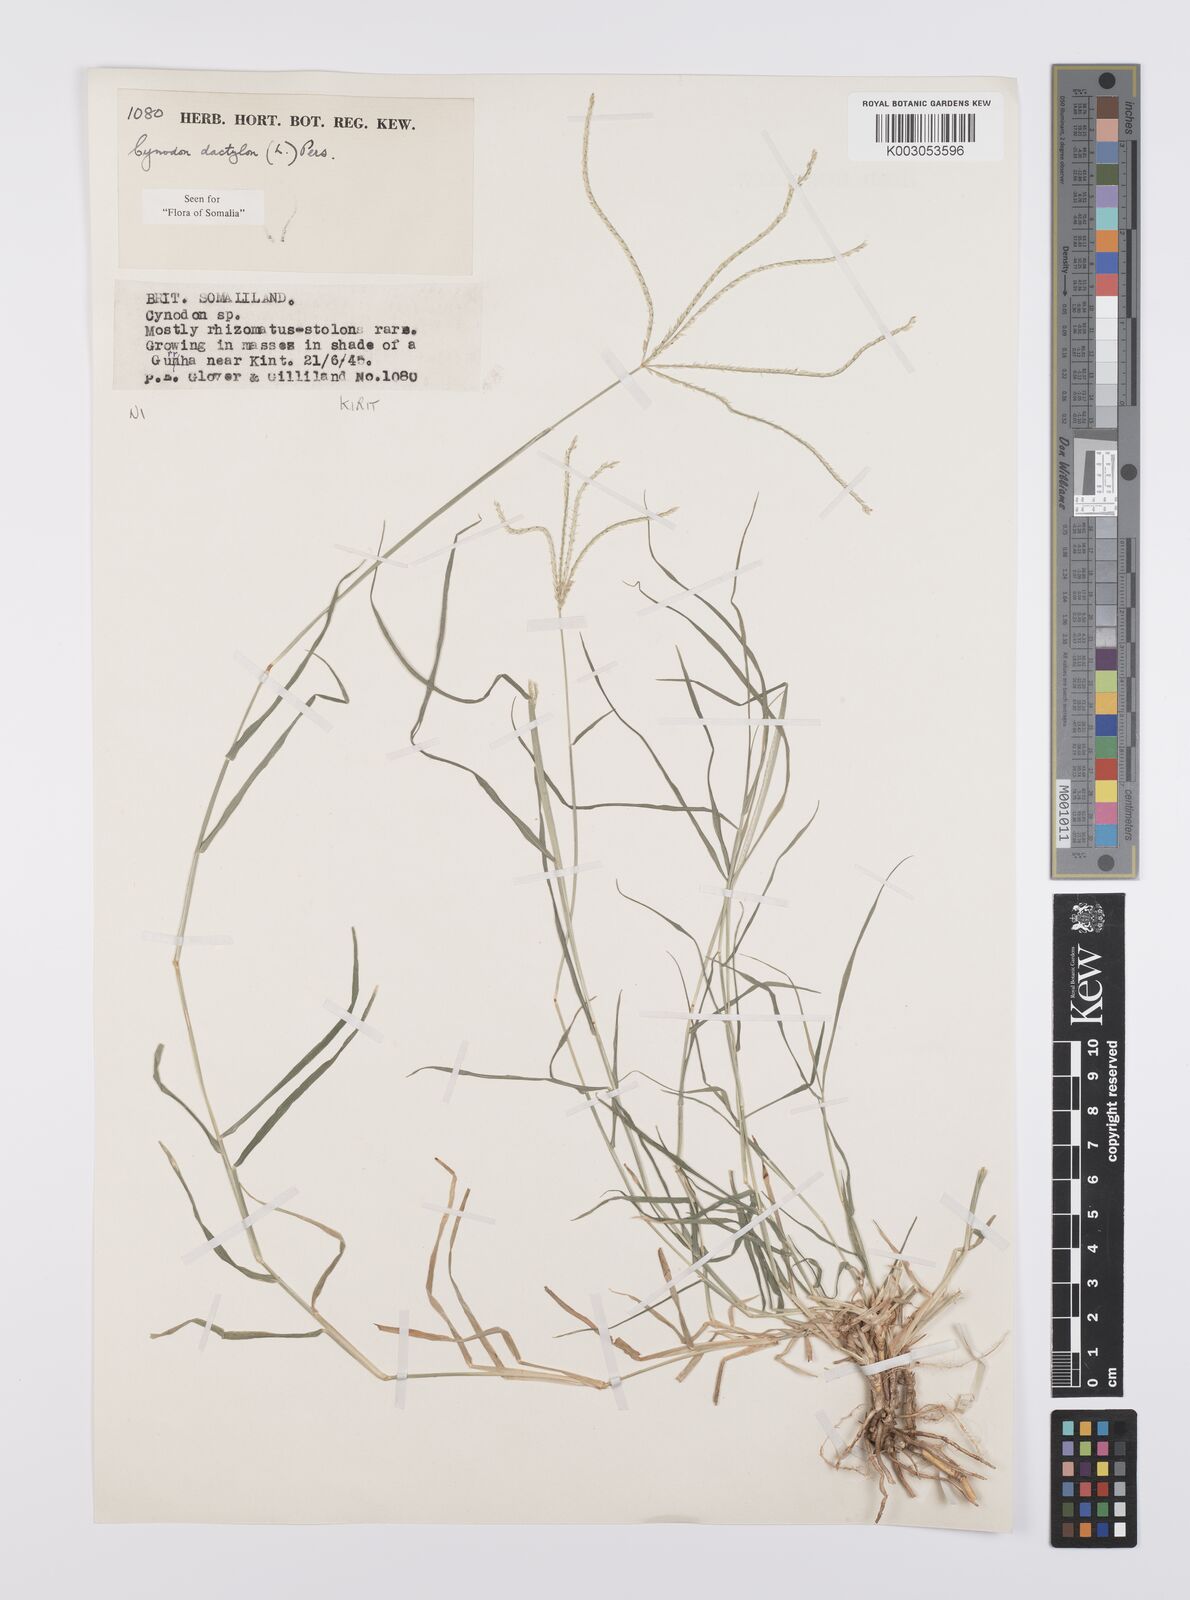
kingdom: Plantae
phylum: Tracheophyta
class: Liliopsida
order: Poales
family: Poaceae
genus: Cynodon
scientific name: Cynodon dactylon
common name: Bermuda grass
